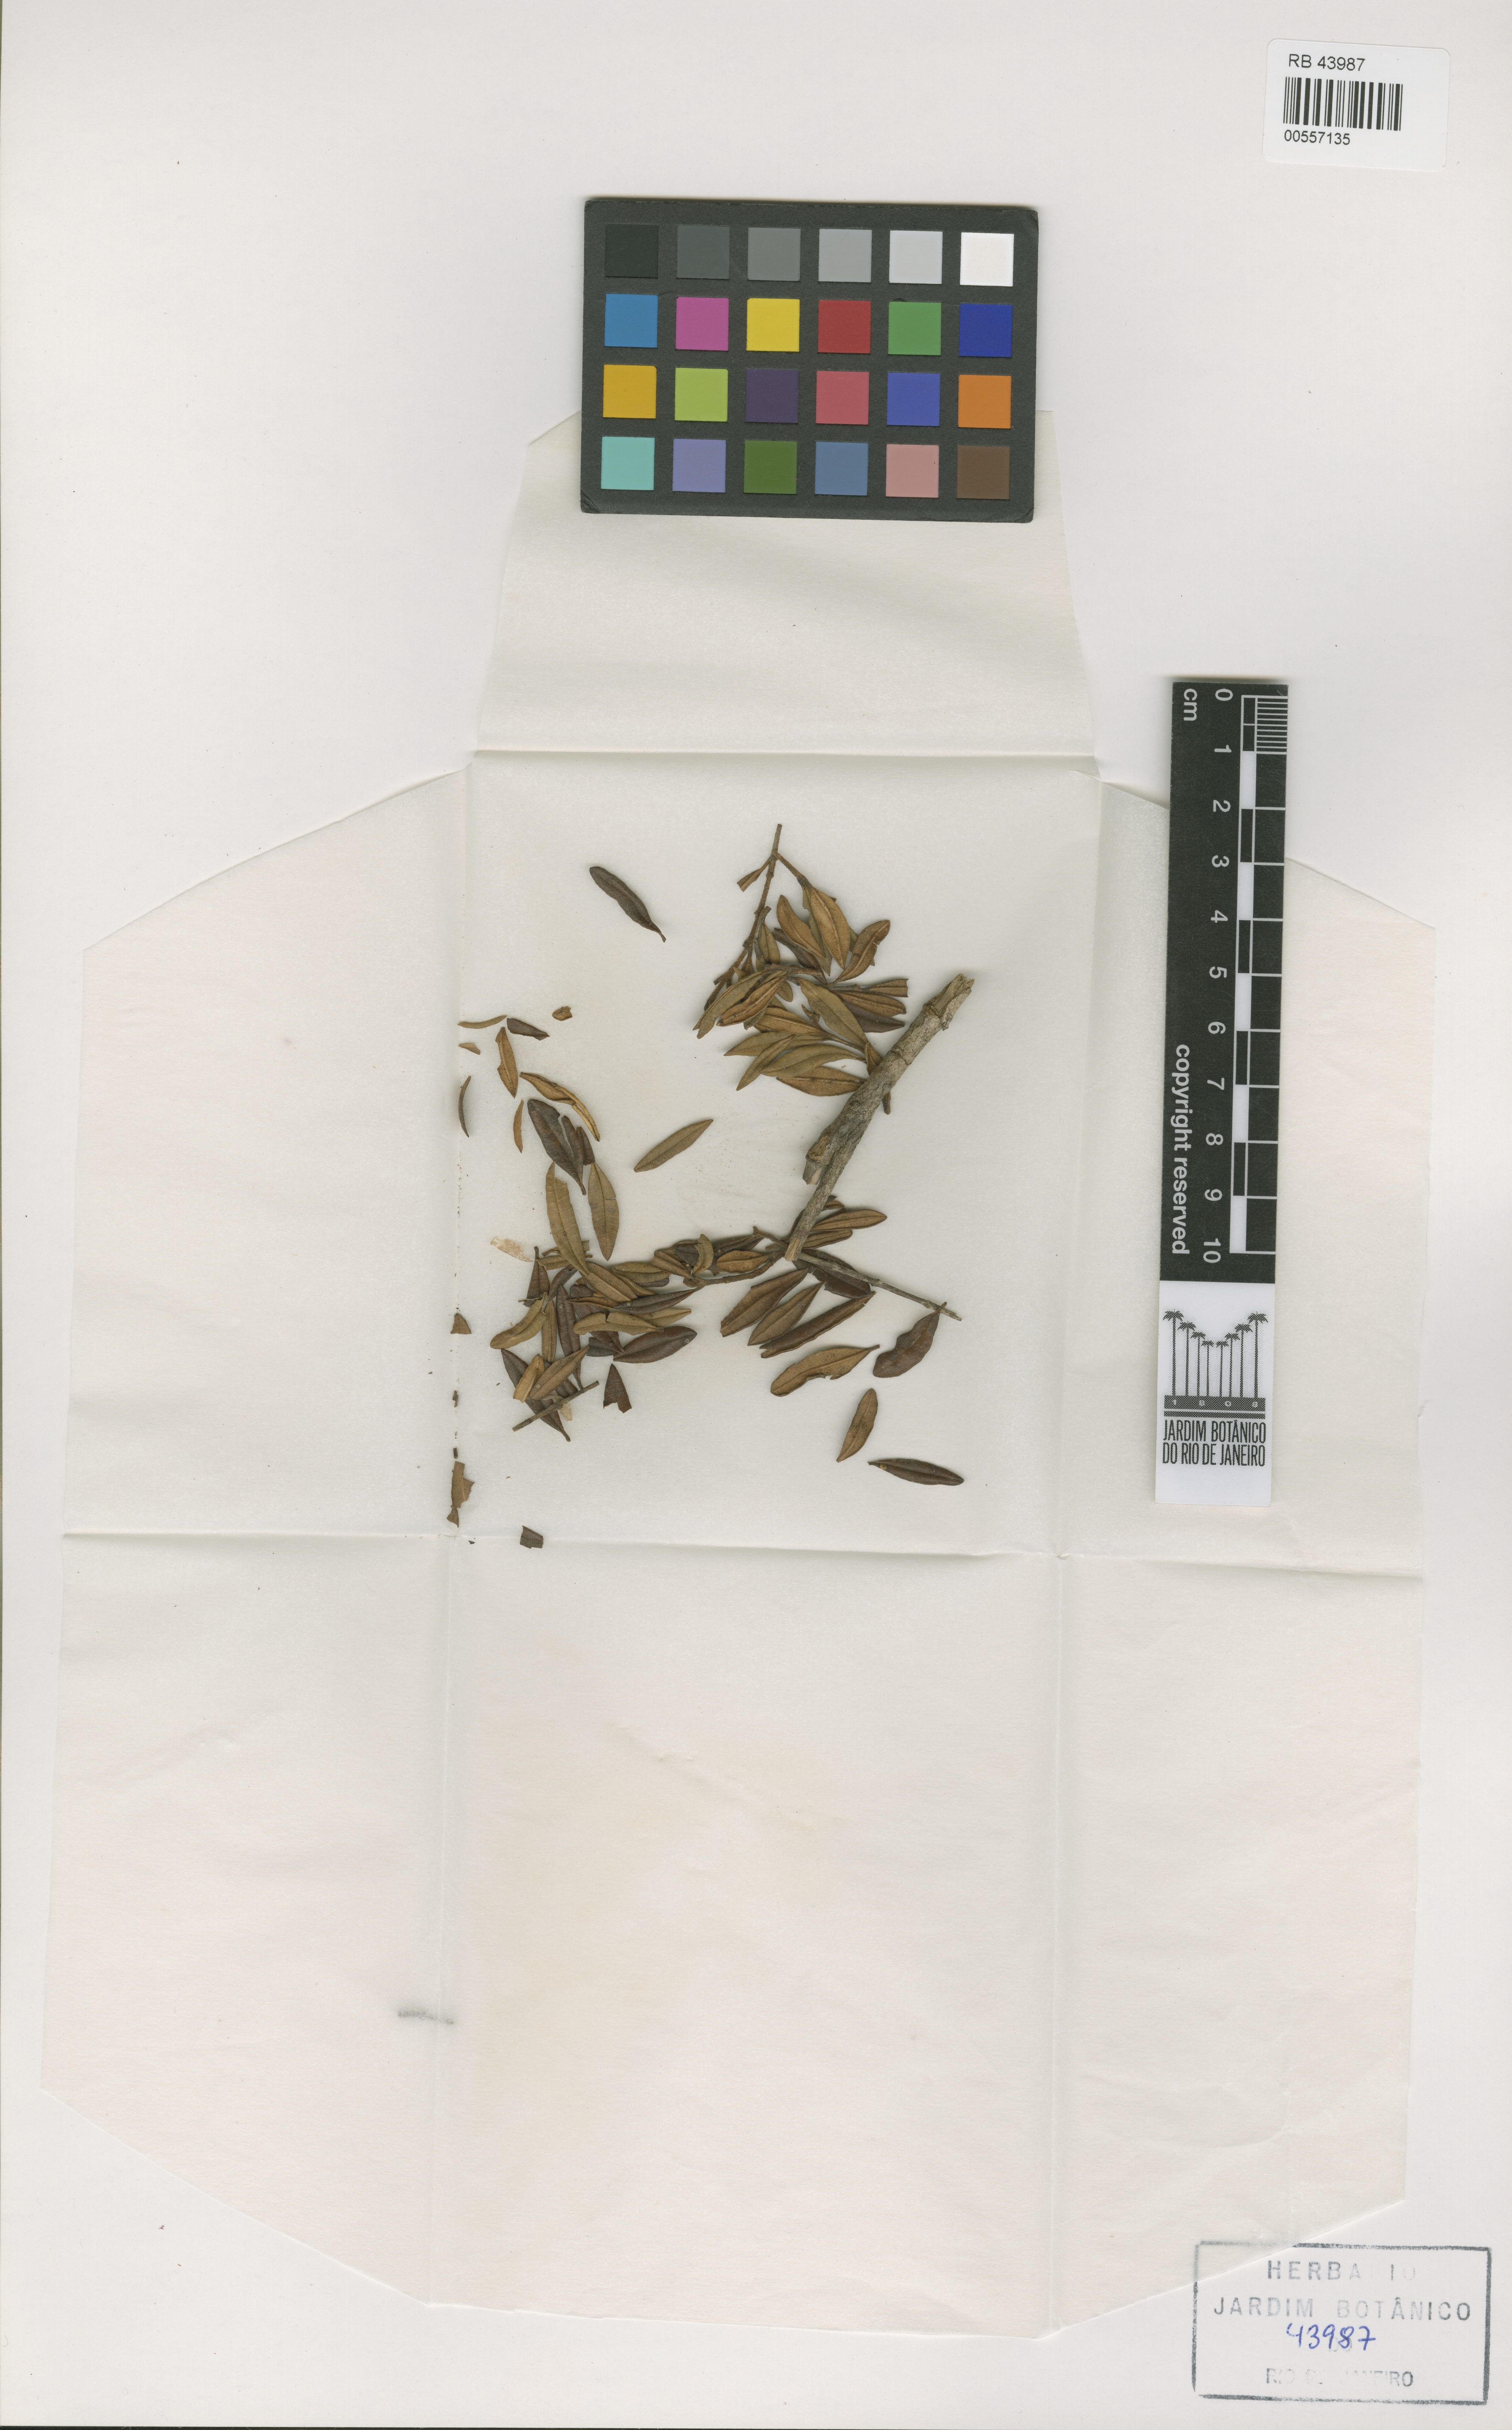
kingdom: Plantae
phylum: Tracheophyta
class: Magnoliopsida
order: Myrtales
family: Myrtaceae
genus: Myrceugenia
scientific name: Myrceugenia bracteosa
